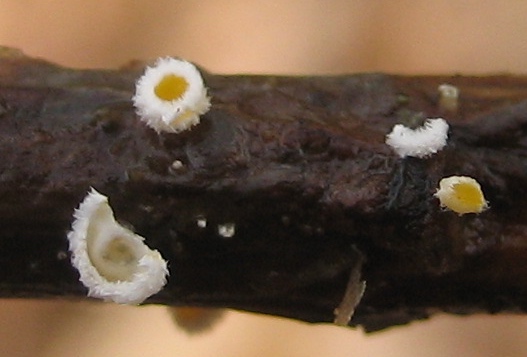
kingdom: Fungi
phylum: Ascomycota
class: Leotiomycetes
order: Helotiales
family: Lachnaceae
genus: Lachnum
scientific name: Lachnum
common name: frynseskive
